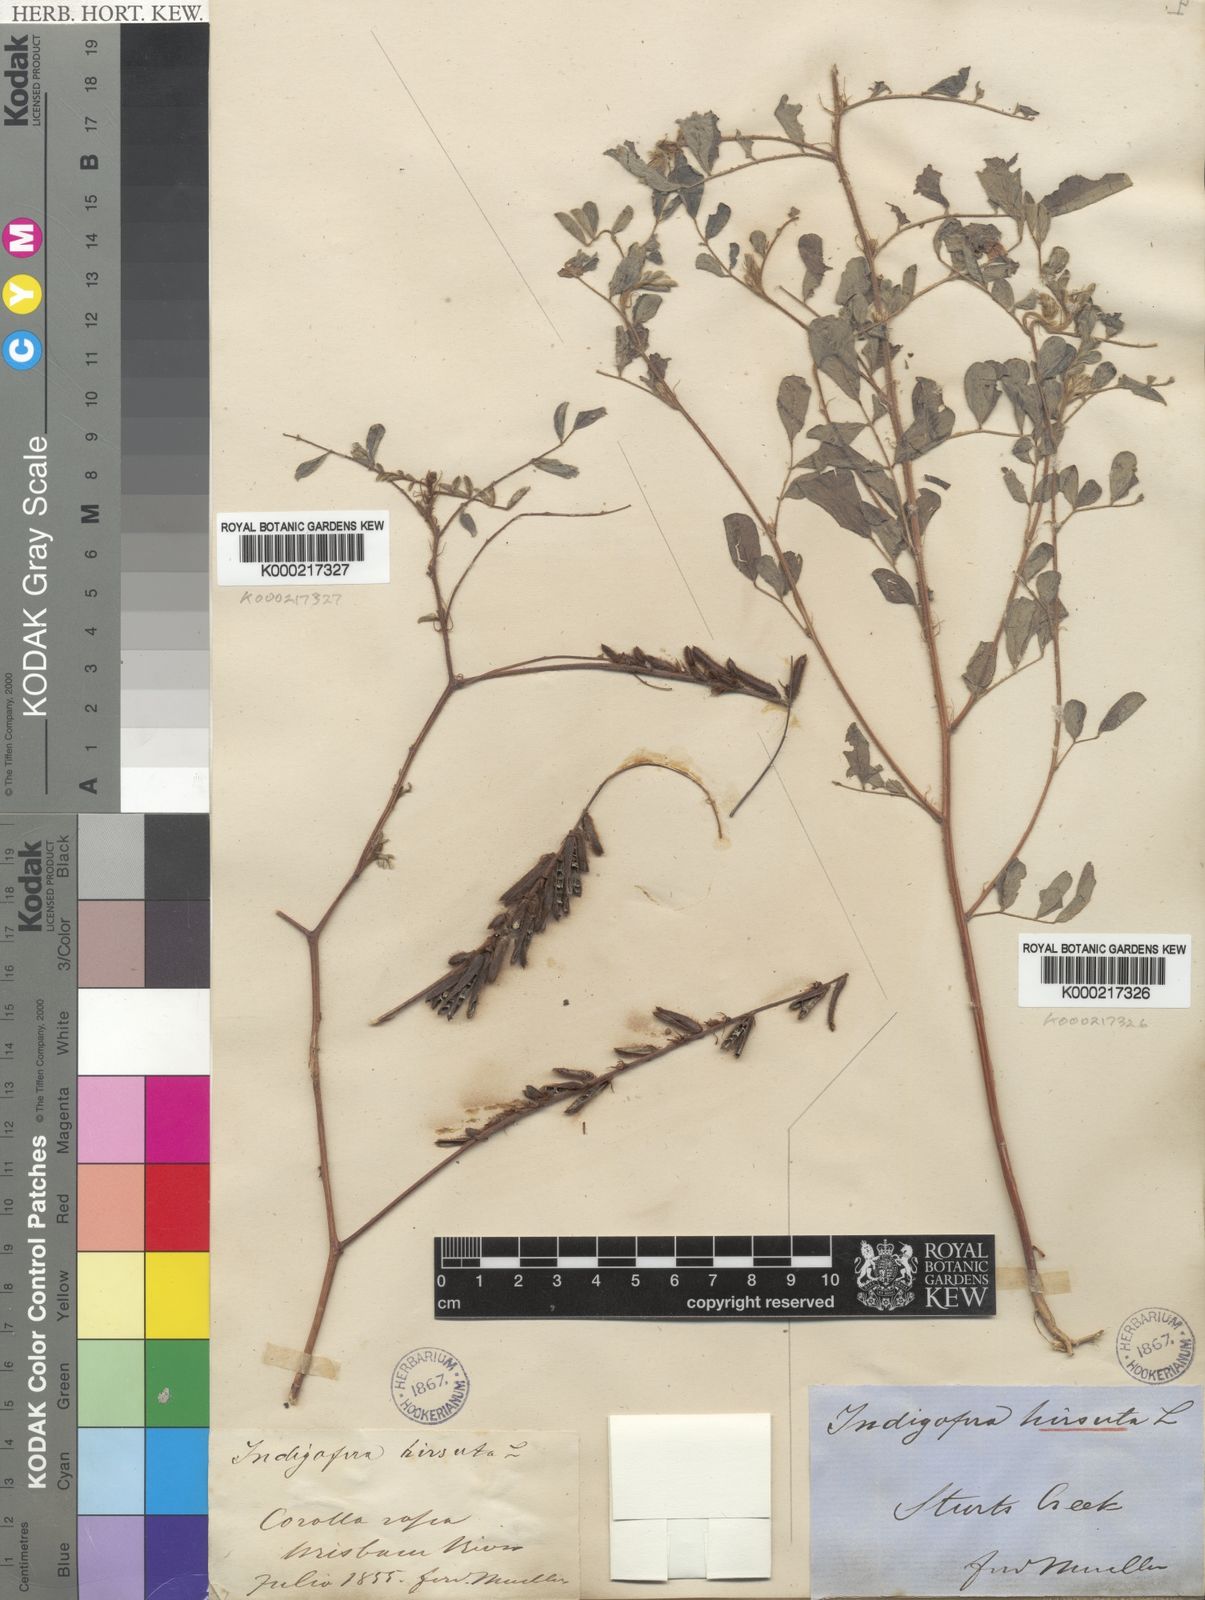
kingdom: Plantae
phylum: Tracheophyta
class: Magnoliopsida
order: Fabales
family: Fabaceae
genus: Indigofera
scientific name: Indigofera hirsuta
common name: Hairy indigo
